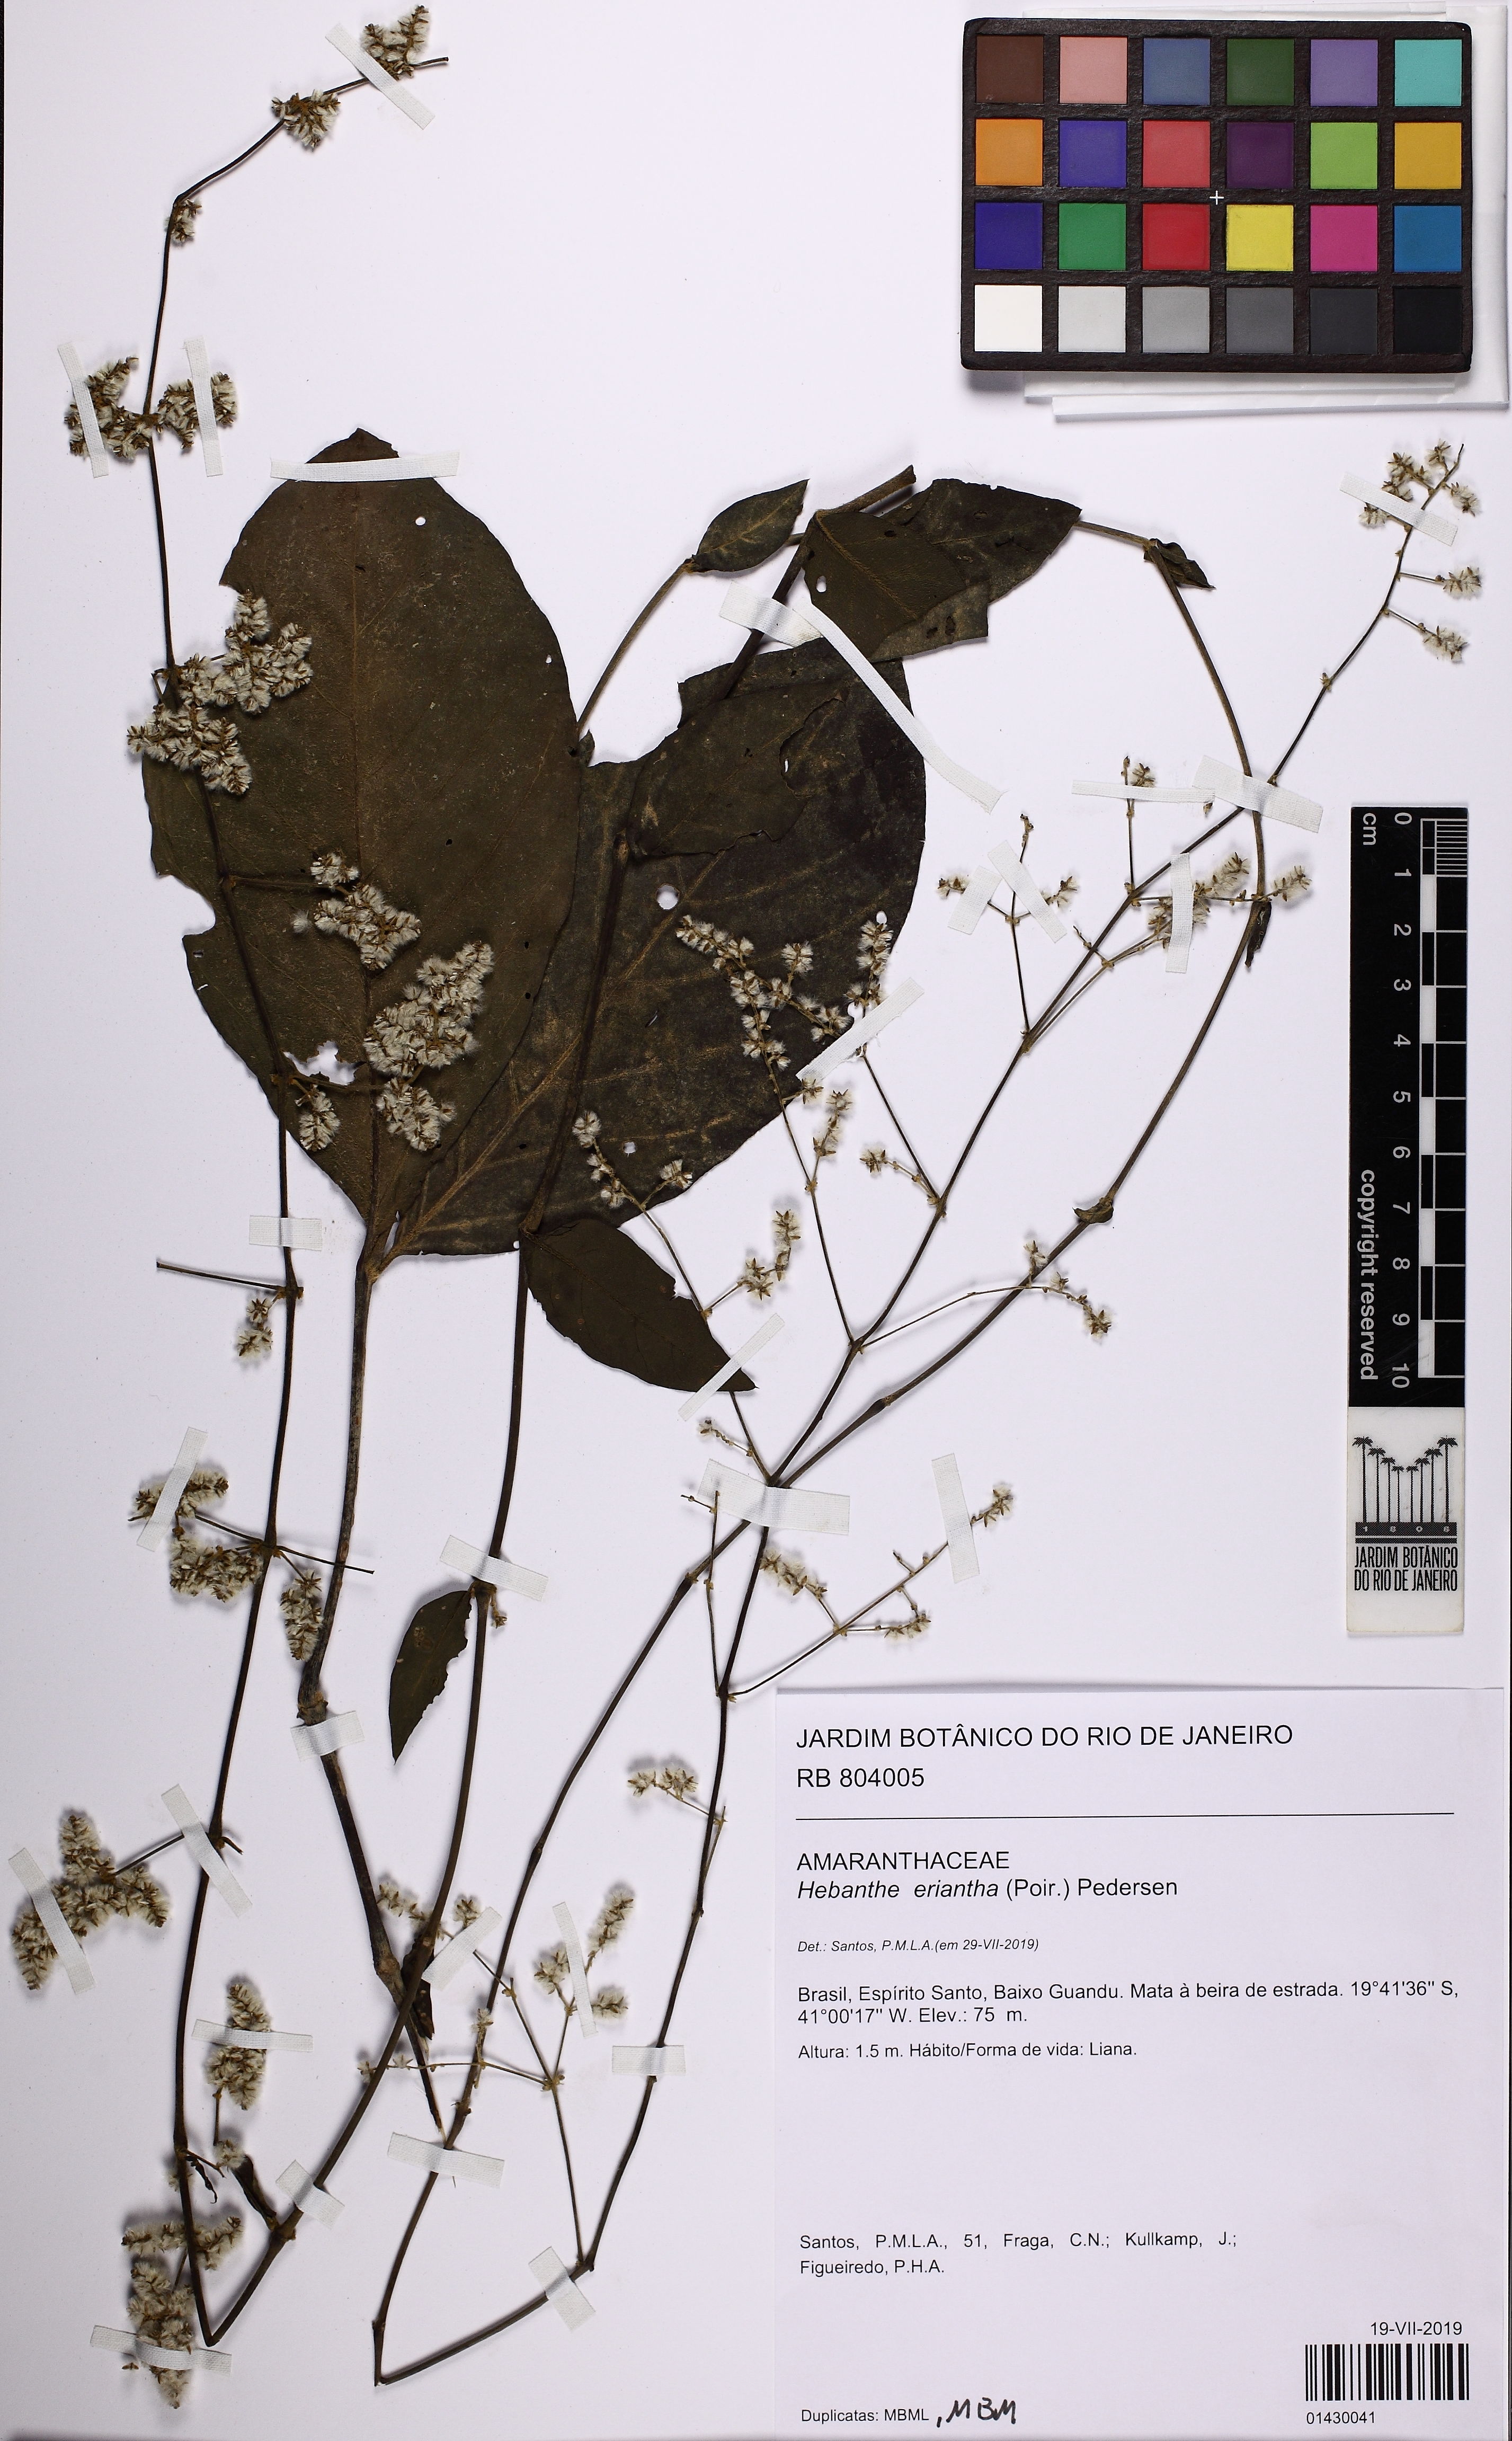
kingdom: Plantae
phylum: Tracheophyta
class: Magnoliopsida
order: Caryophyllales
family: Amaranthaceae
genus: Hebanthe
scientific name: Hebanthe erianthos
